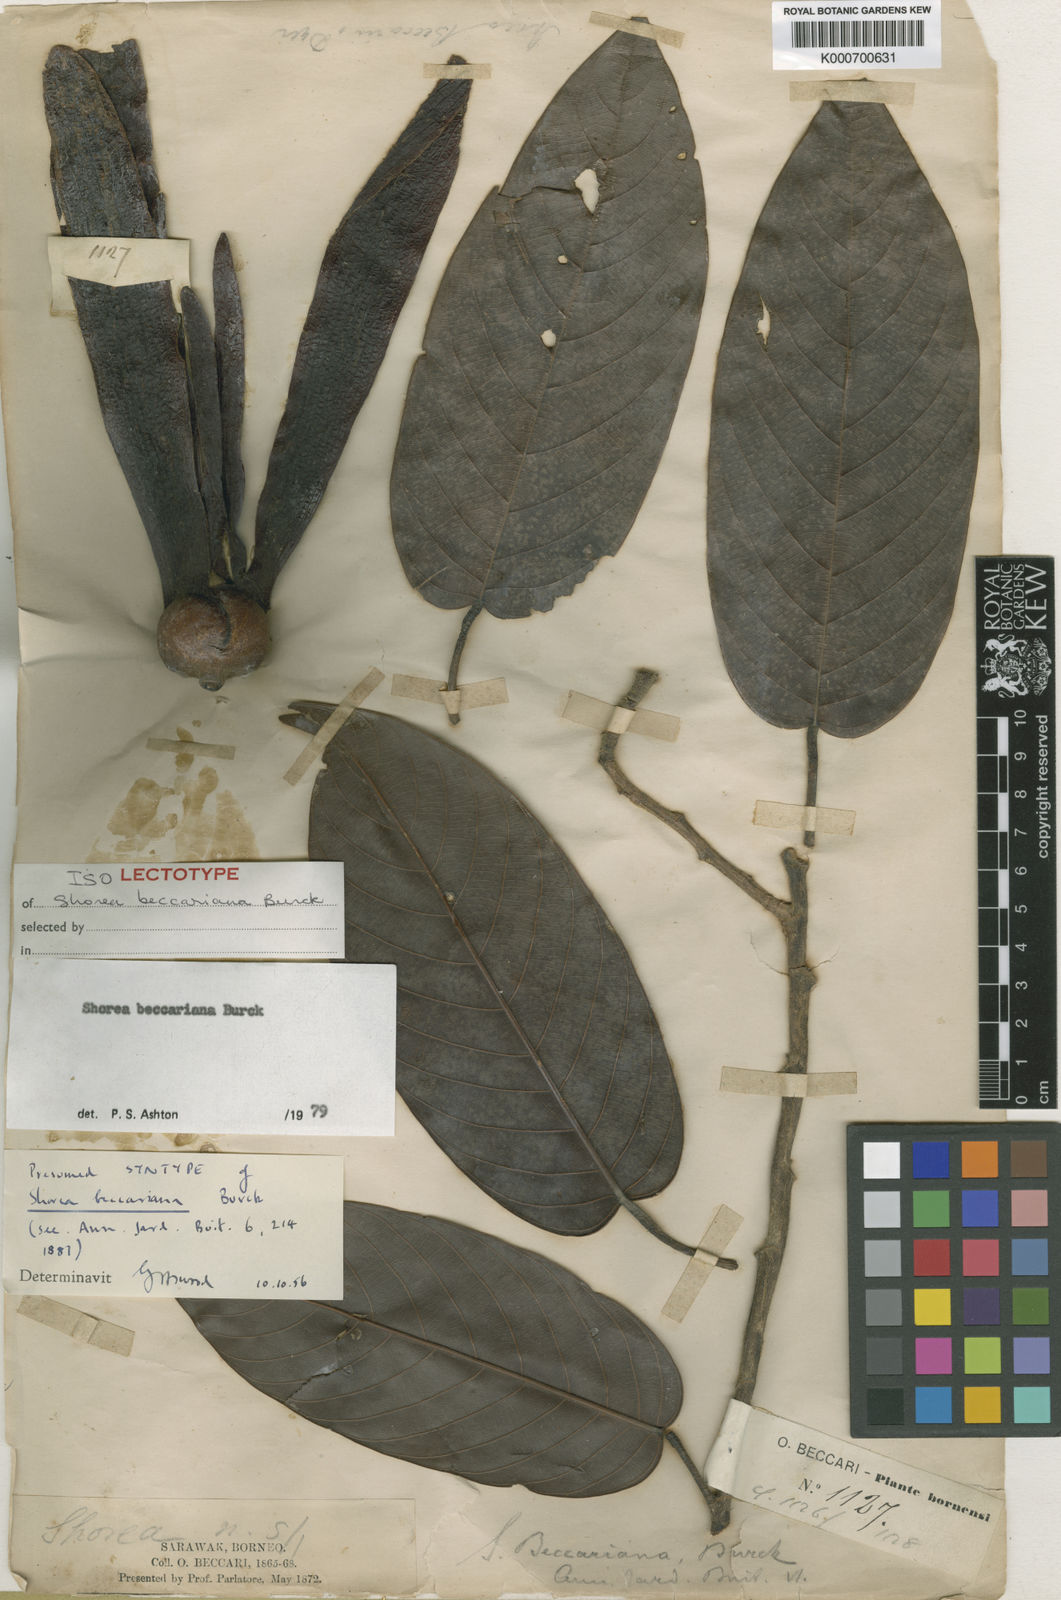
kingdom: Plantae
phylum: Tracheophyta
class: Magnoliopsida
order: Malvales
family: Dipterocarpaceae
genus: Shorea
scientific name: Shorea beccariana
